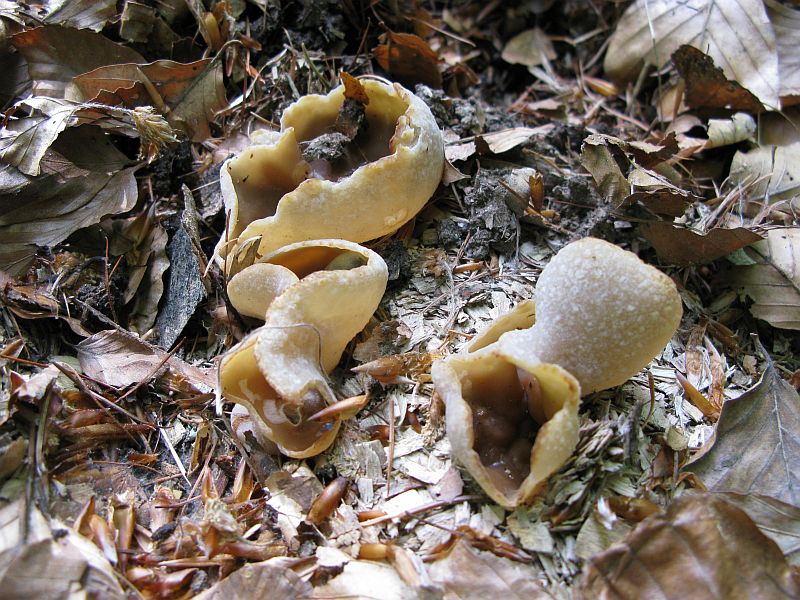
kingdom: Fungi
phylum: Ascomycota
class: Pezizomycetes
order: Pezizales
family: Pezizaceae
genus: Peziza
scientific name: Peziza arvernensis
